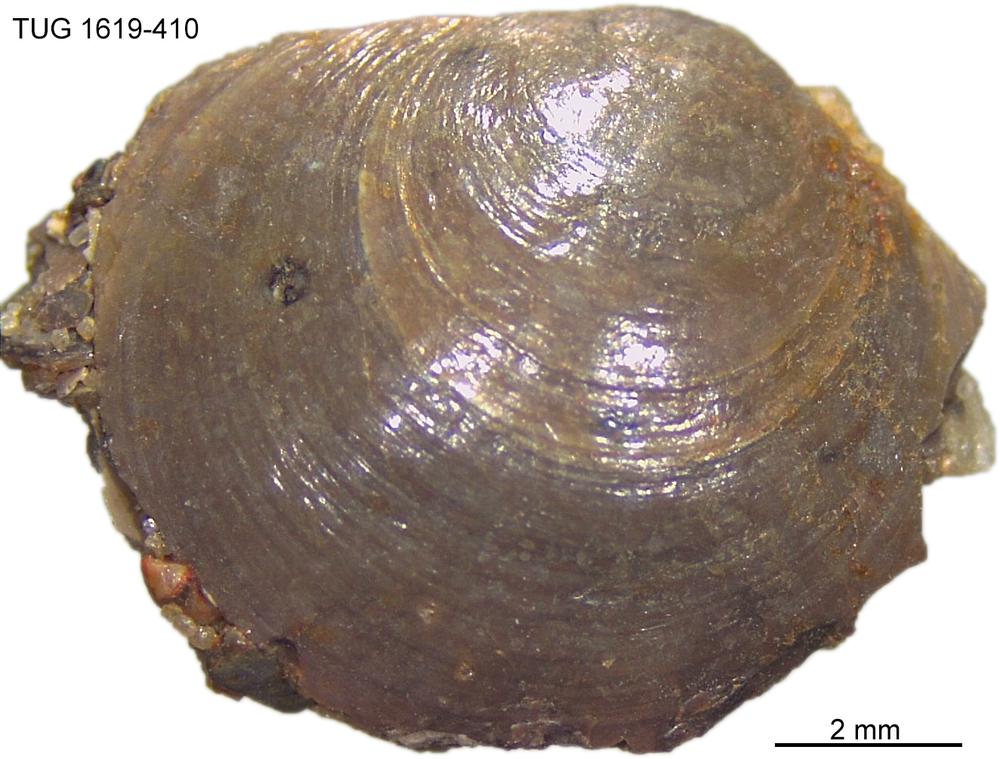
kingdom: Animalia
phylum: Porifera
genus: Ungula
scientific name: Ungula
